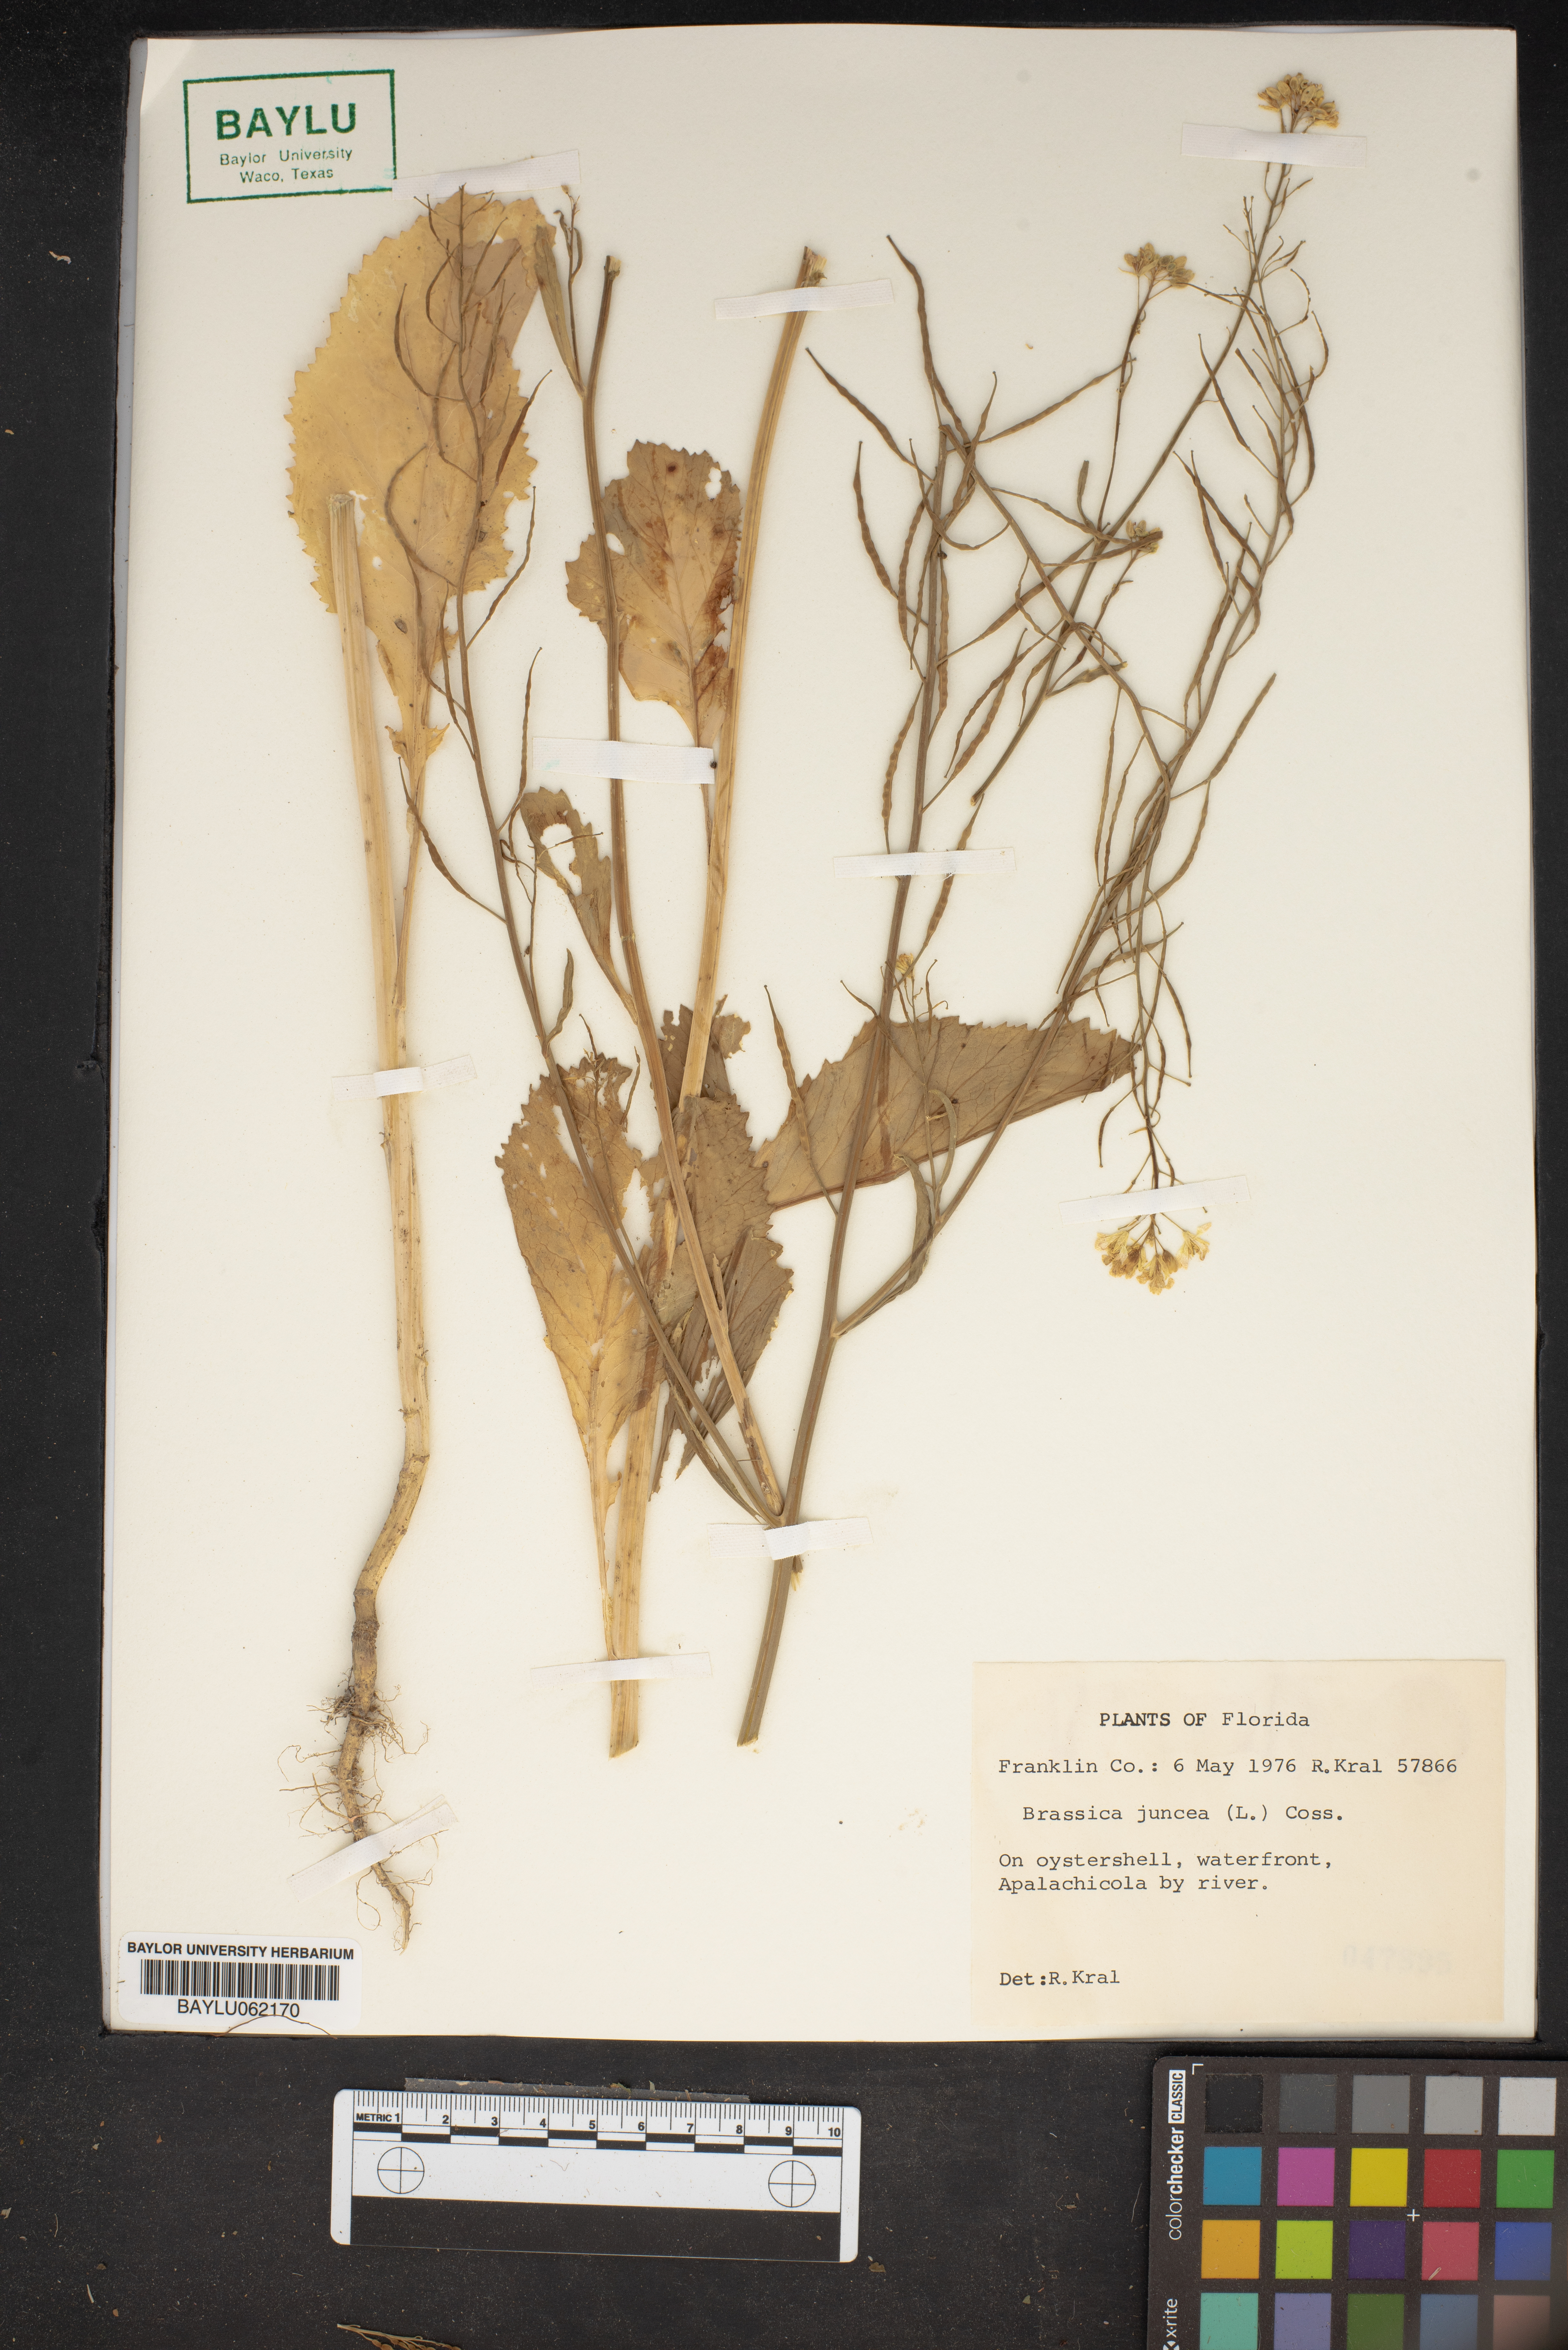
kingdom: Plantae
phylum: Tracheophyta
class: Magnoliopsida
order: Brassicales
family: Brassicaceae
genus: Brassica
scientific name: Brassica juncea
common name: Brown mustard
